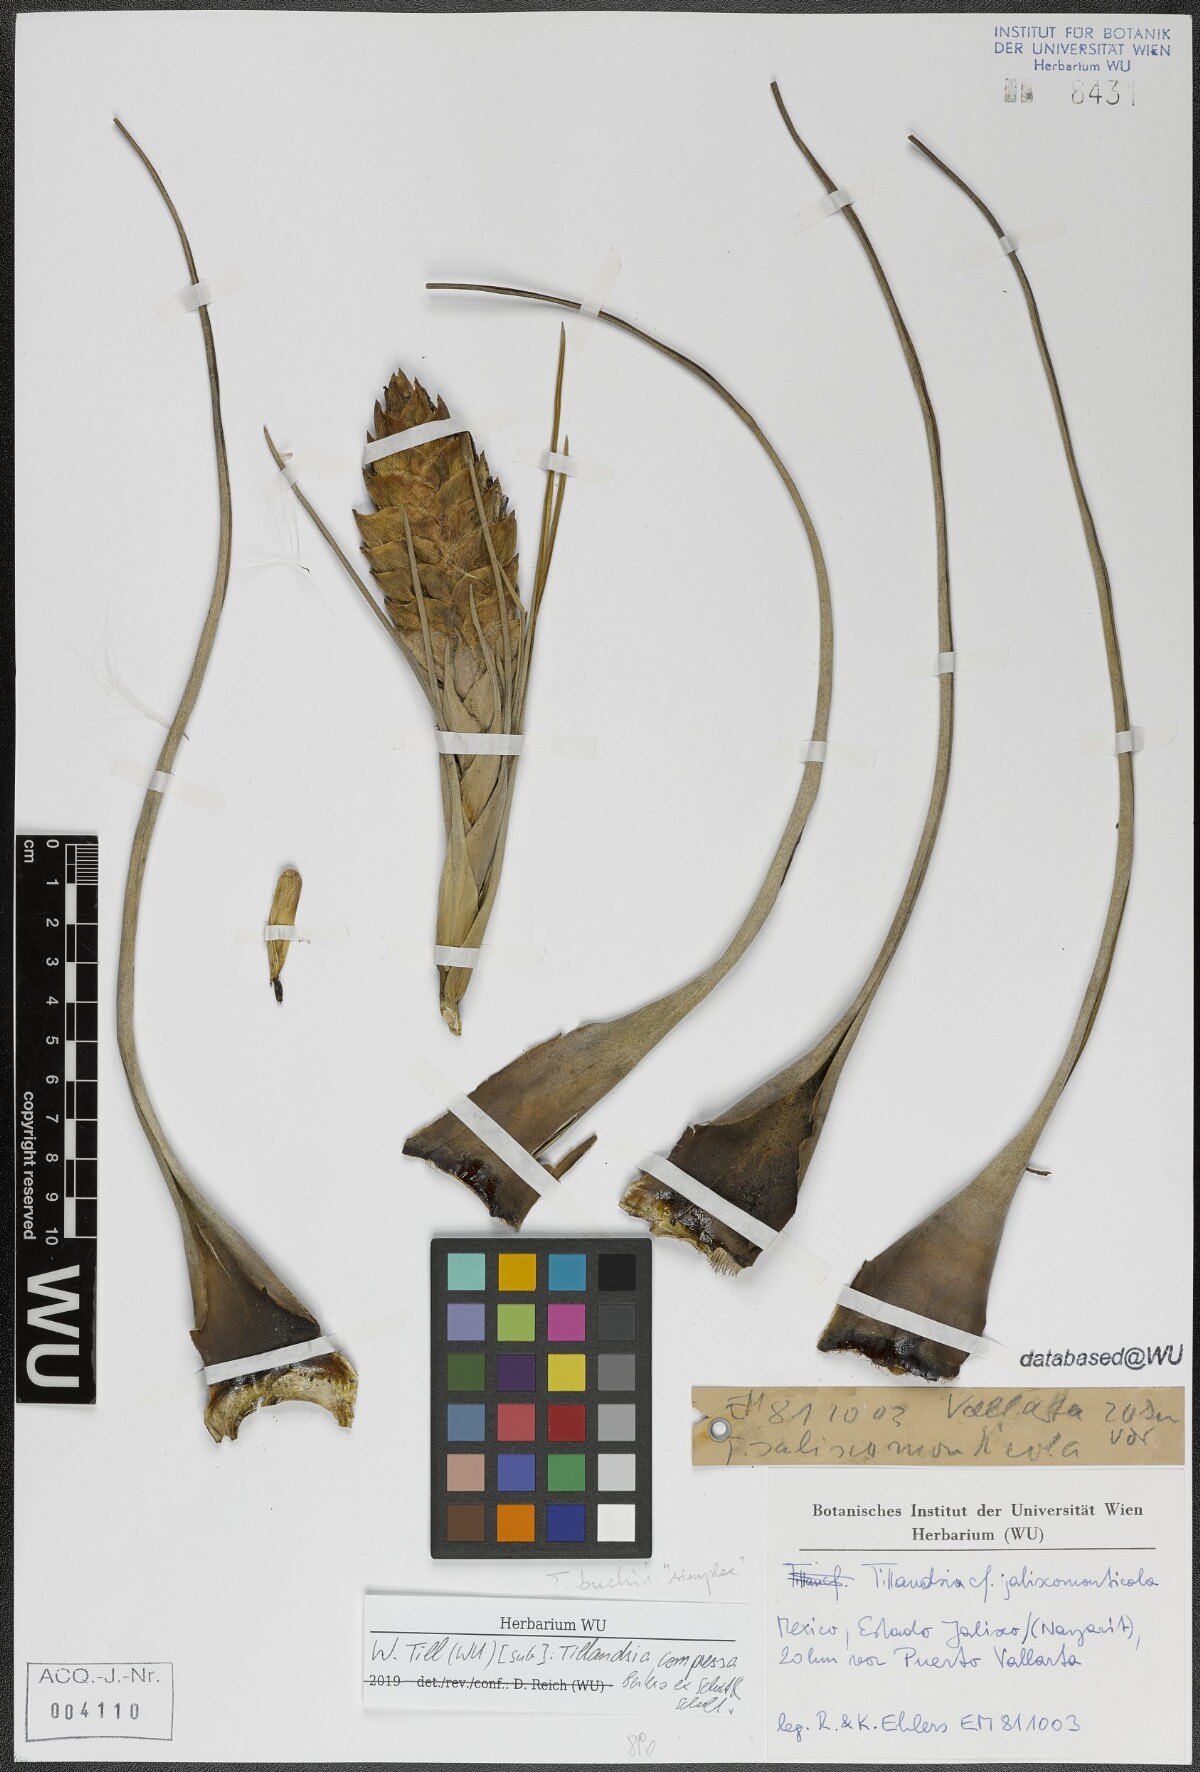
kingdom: Plantae
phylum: Tracheophyta
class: Liliopsida
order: Poales
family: Bromeliaceae
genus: Tillandsia
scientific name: Tillandsia compressa
